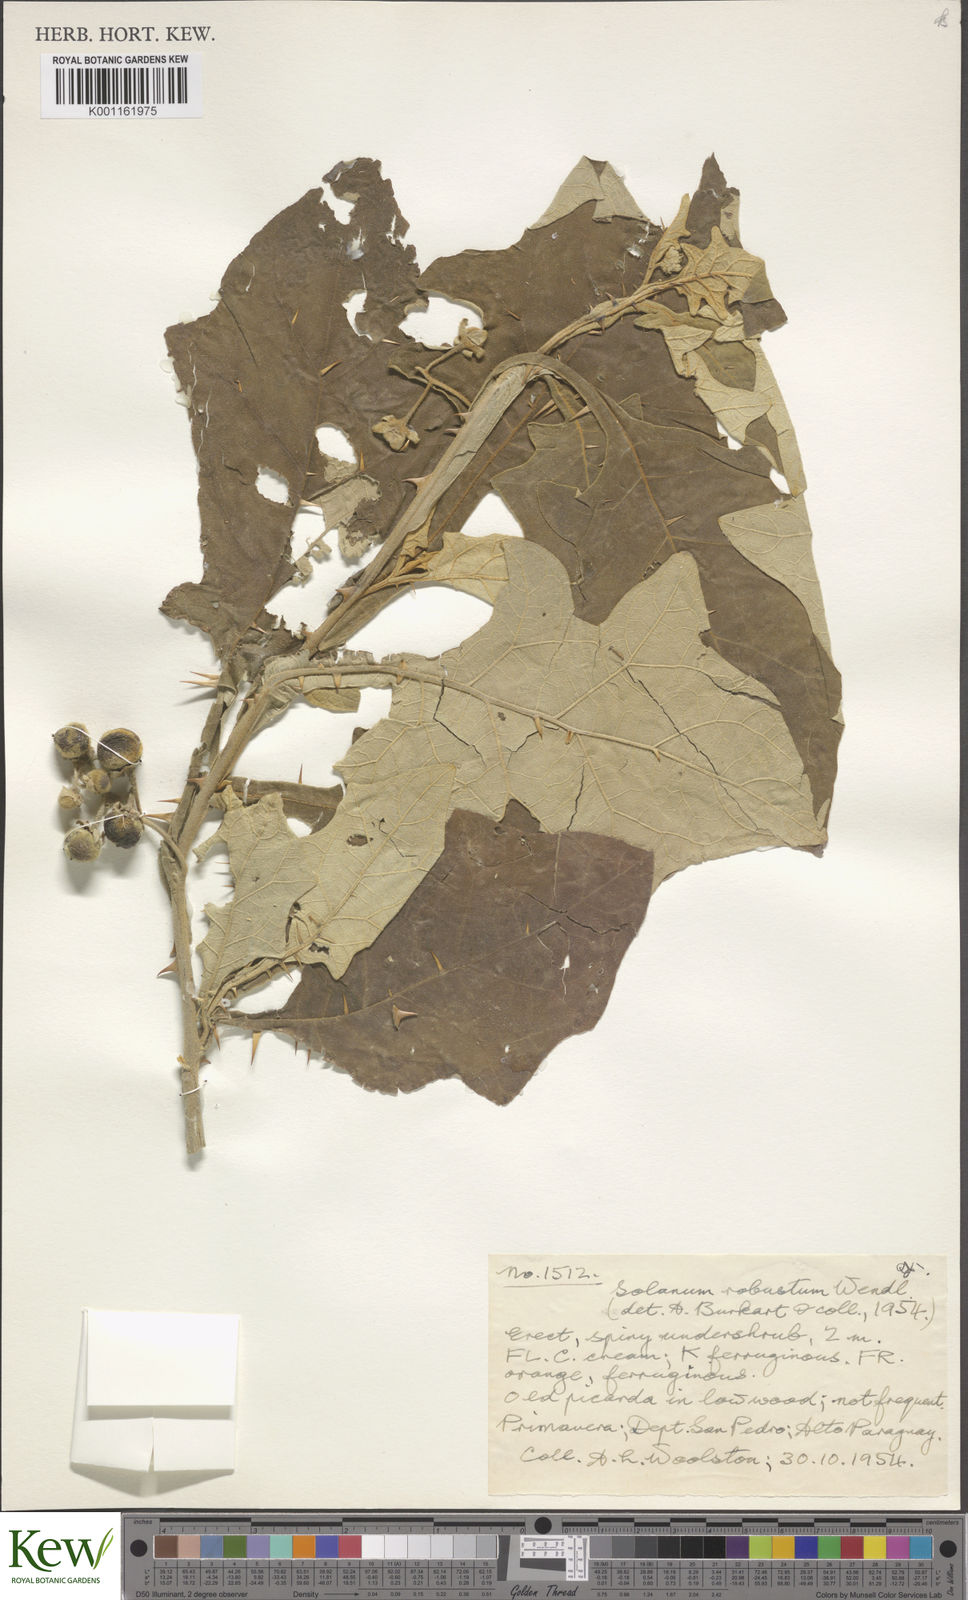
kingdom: Plantae
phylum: Tracheophyta
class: Magnoliopsida
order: Solanales
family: Solanaceae
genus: Solanum
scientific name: Solanum robustum
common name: Shrubby nightshade
